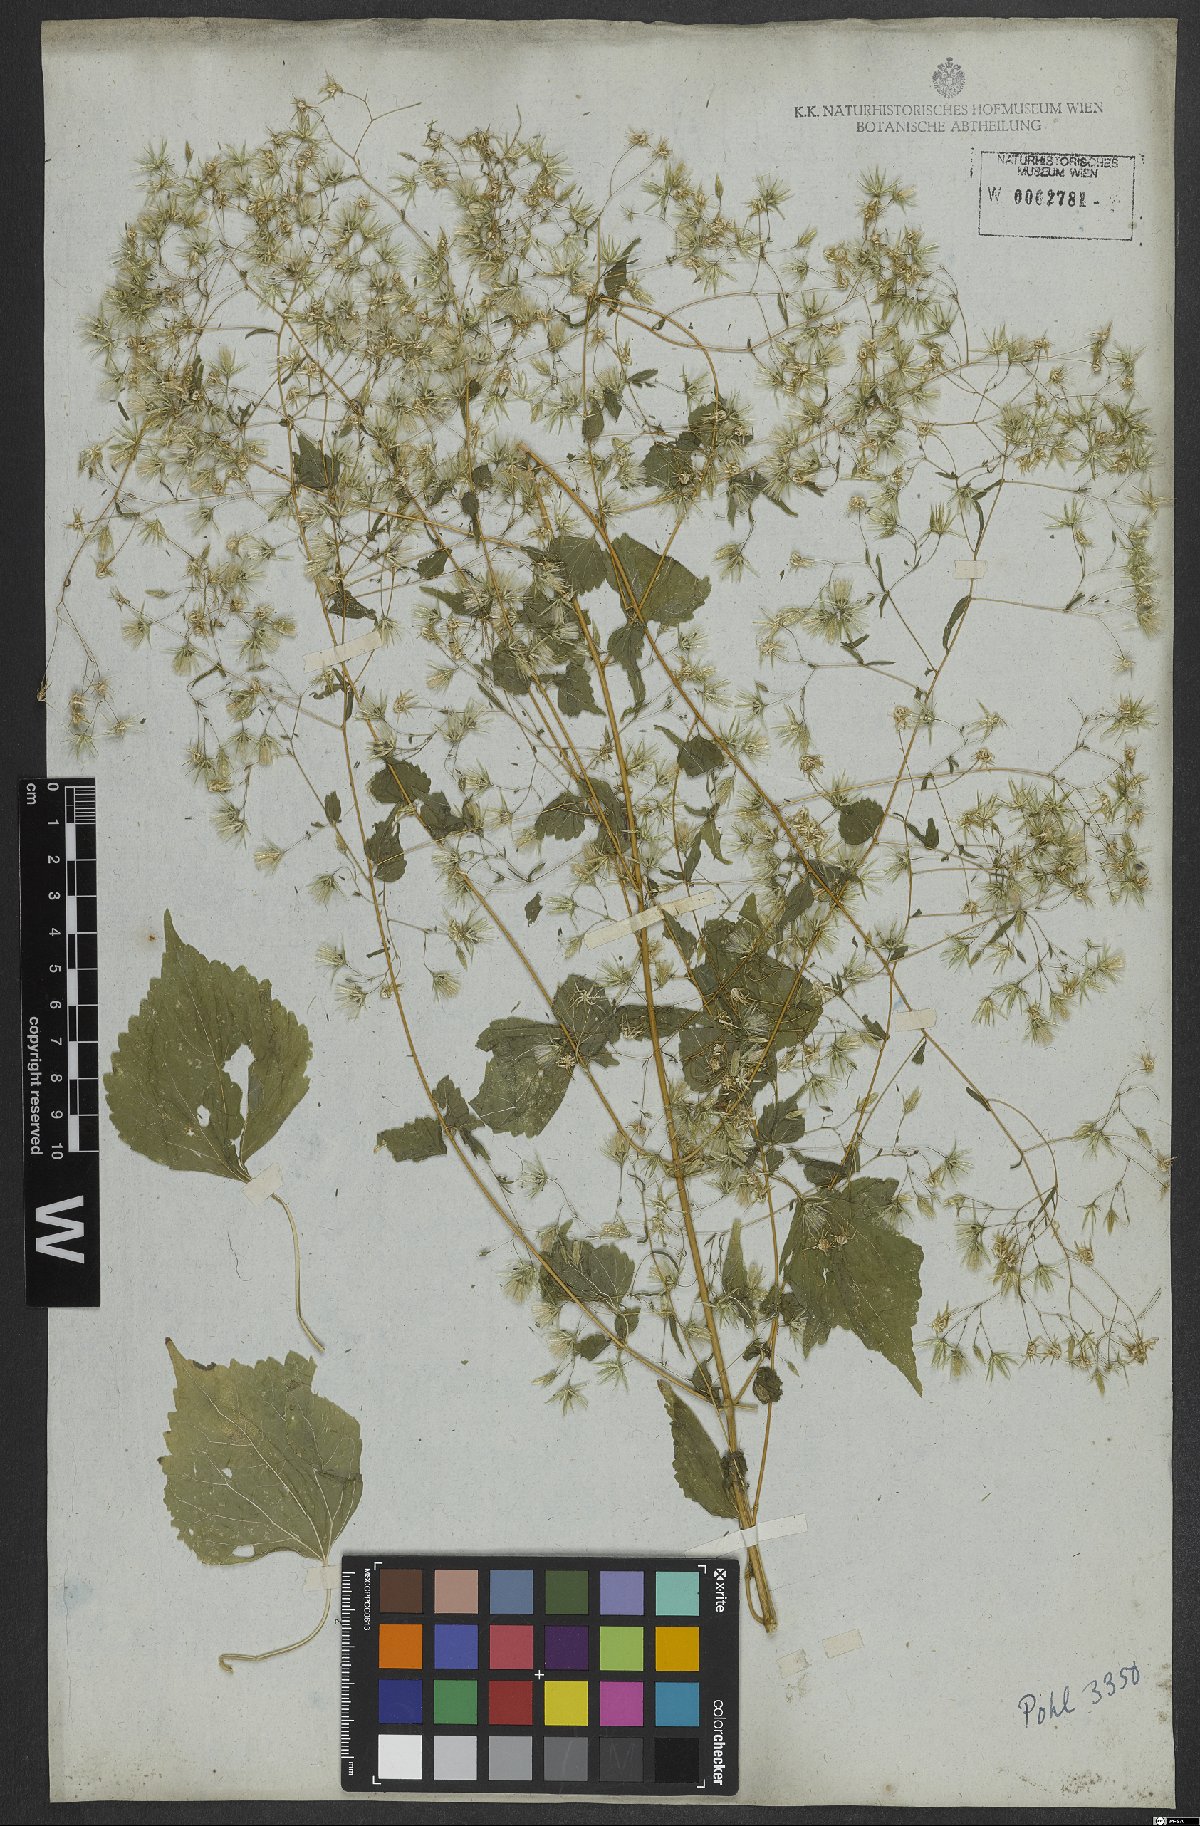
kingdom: Plantae
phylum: Tracheophyta
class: Magnoliopsida
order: Asterales
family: Asteraceae
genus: Brickellia
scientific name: Brickellia diffusa
